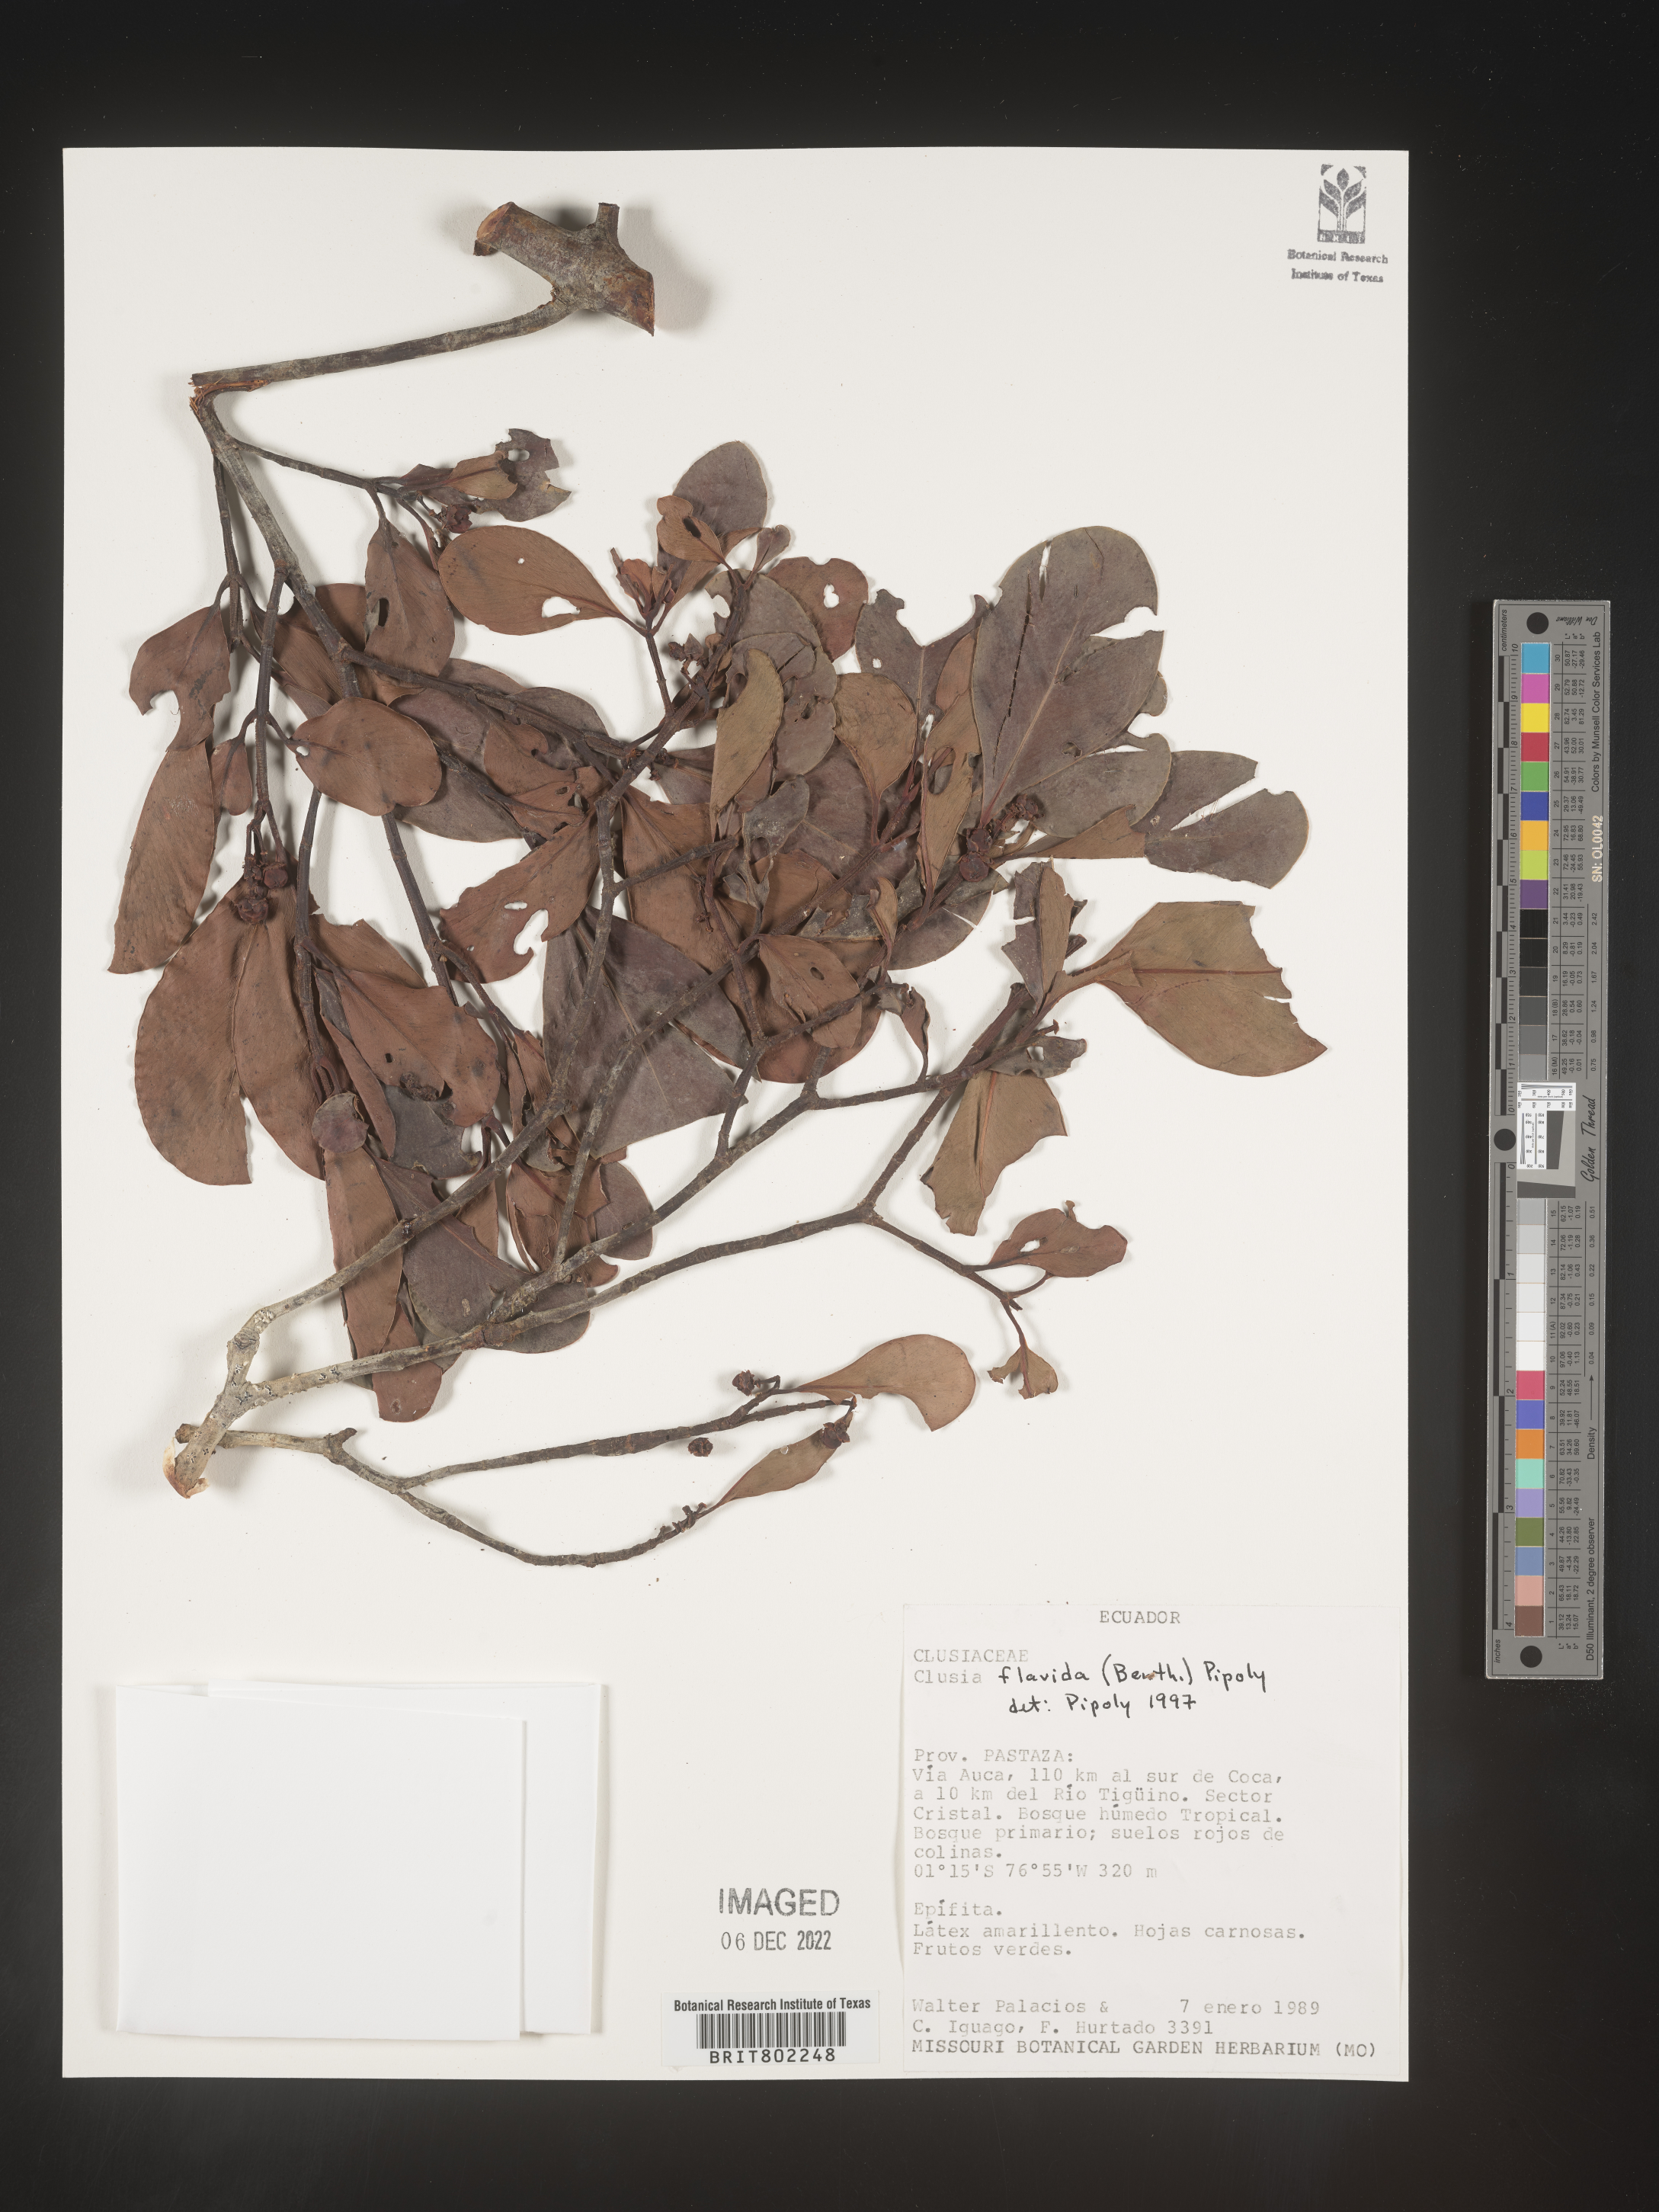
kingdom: Plantae
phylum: Tracheophyta
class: Magnoliopsida
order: Malpighiales
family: Clusiaceae
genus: Clusia
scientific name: Clusia flavida
